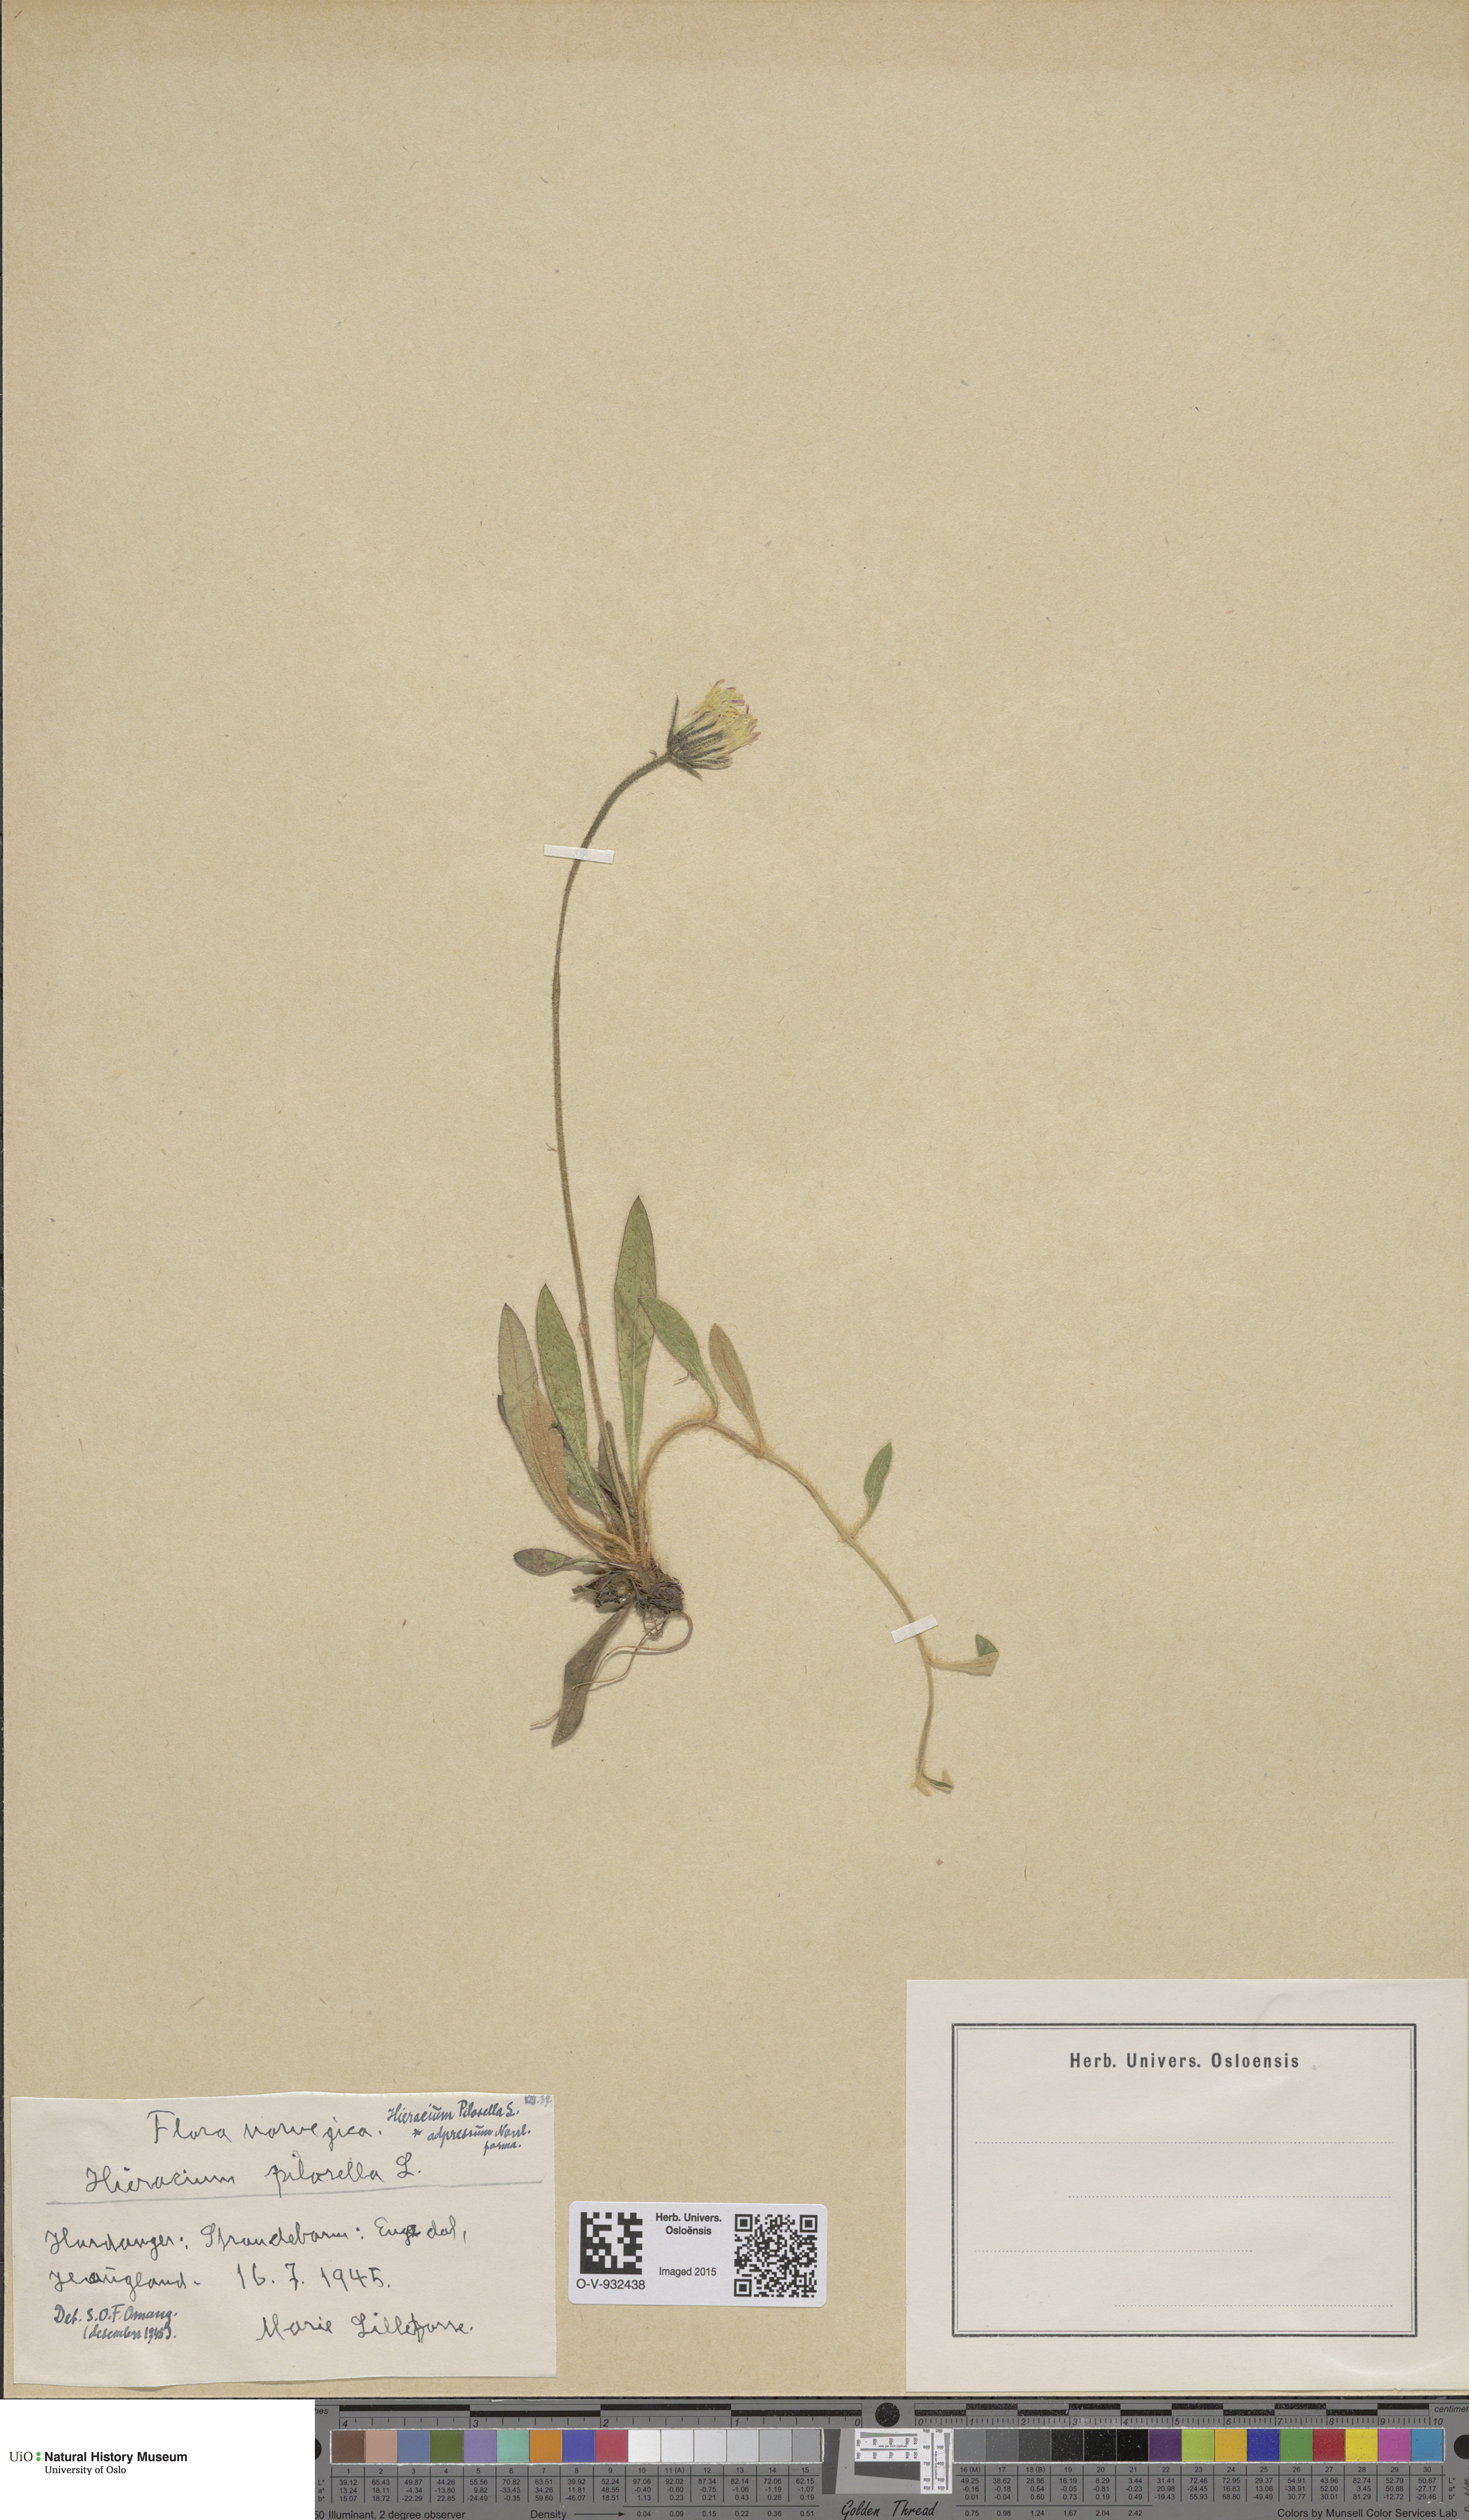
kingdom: Plantae
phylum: Tracheophyta
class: Magnoliopsida
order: Asterales
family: Asteraceae
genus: Pilosella
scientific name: Pilosella officinarum
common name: Mouse-ear hawkweed
